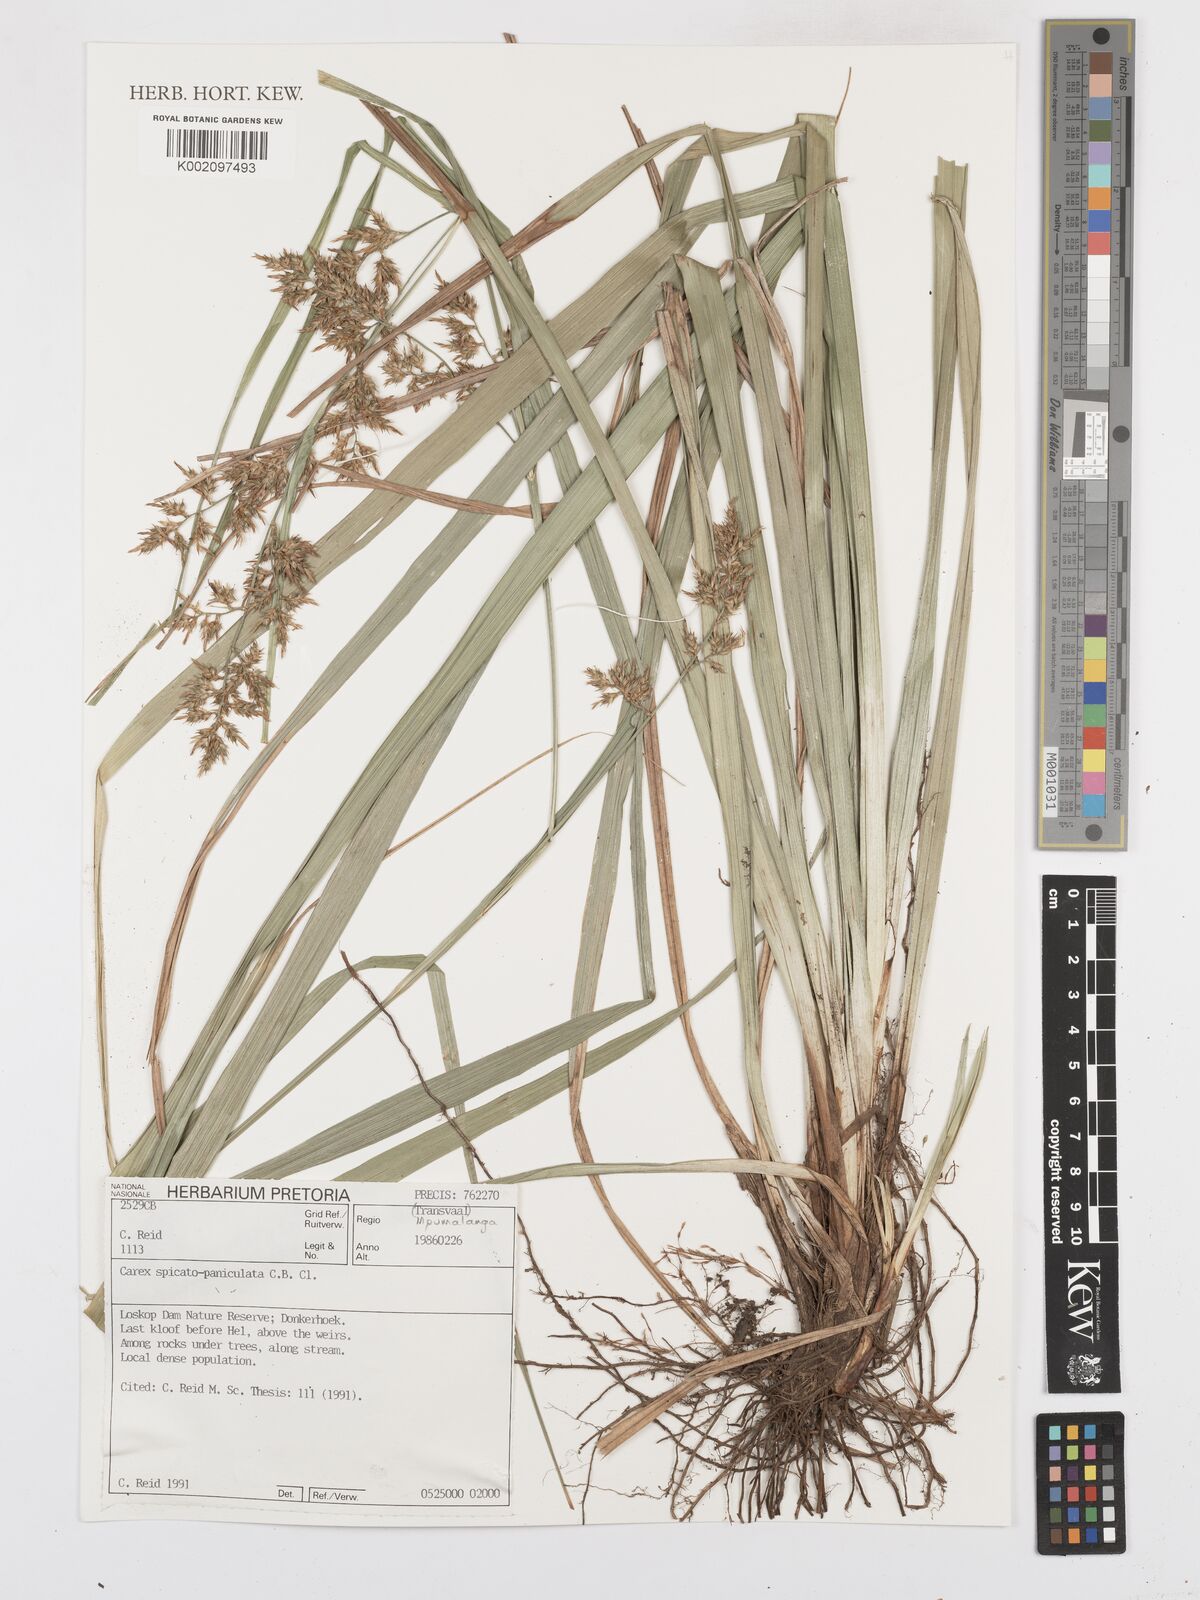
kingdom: Plantae
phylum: Tracheophyta
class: Liliopsida
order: Poales
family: Cyperaceae
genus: Carex
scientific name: Carex spicatopaniculata
